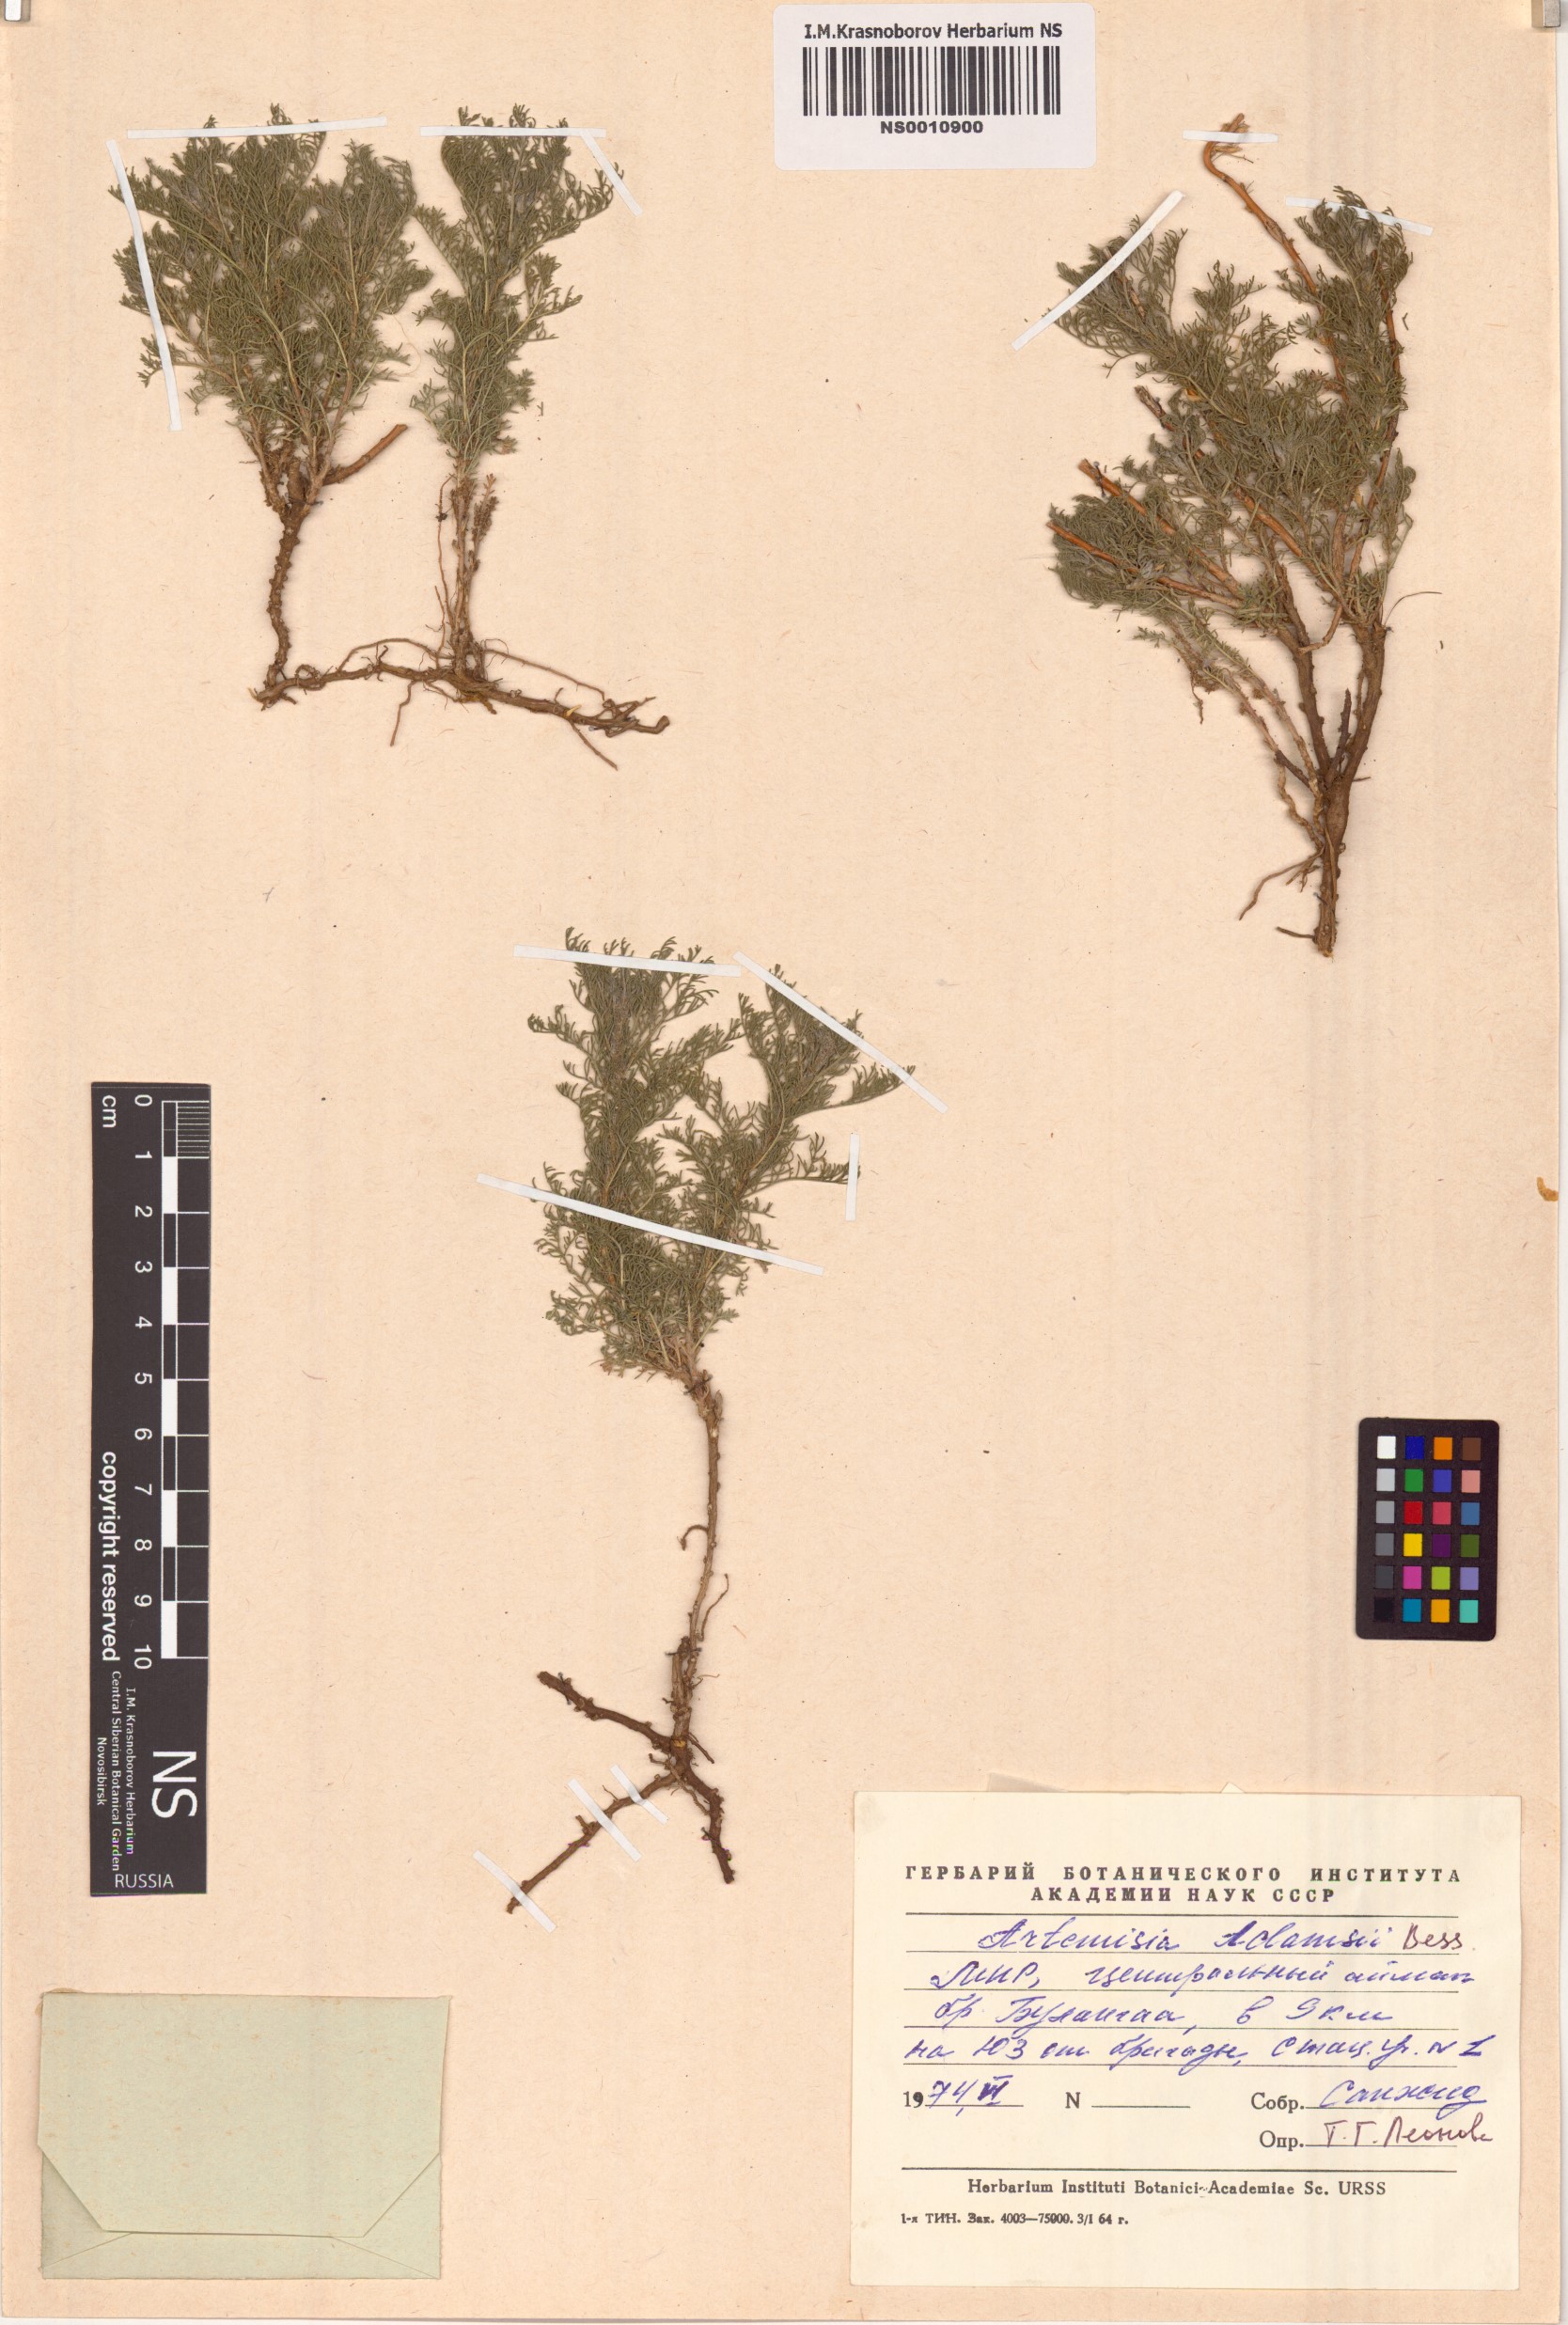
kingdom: Plantae
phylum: Tracheophyta
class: Magnoliopsida
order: Asterales
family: Asteraceae
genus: Artemisia
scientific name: Artemisia adamsii
